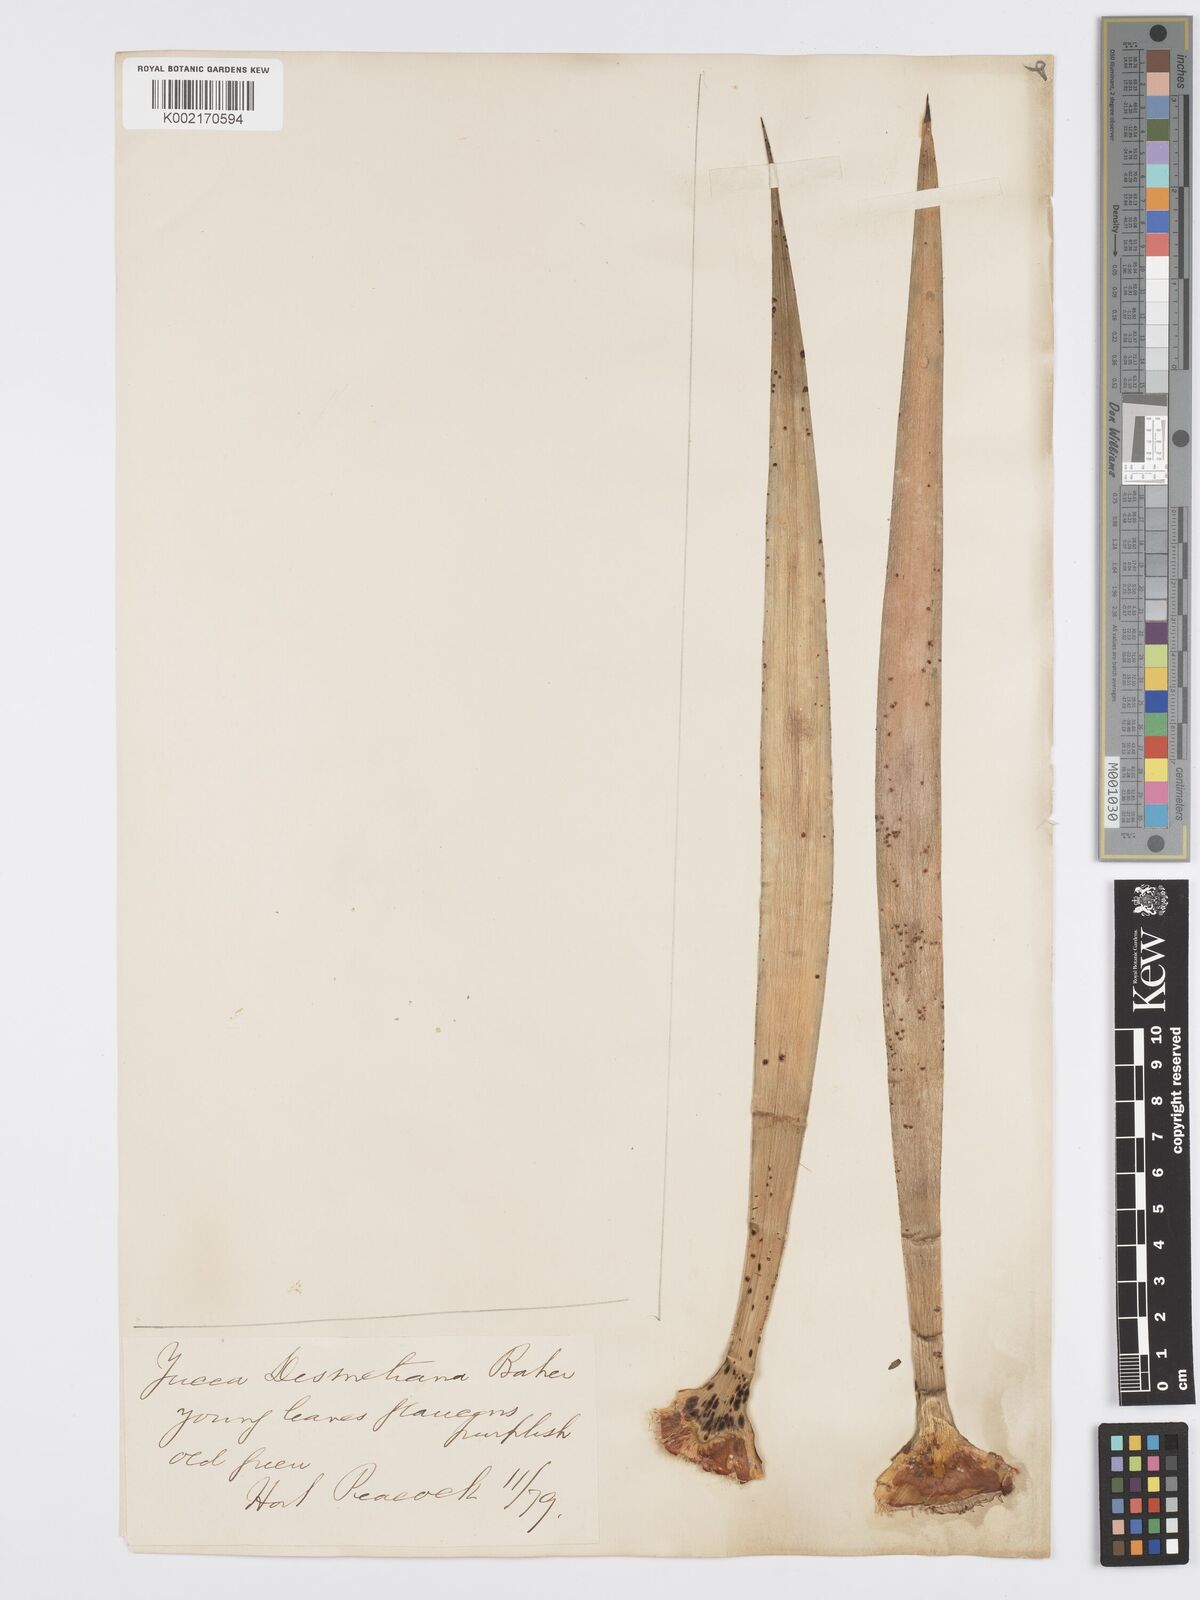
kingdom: Plantae
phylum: Tracheophyta
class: Liliopsida
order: Asparagales
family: Asparagaceae
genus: Yucca
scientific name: Yucca desmetiana
